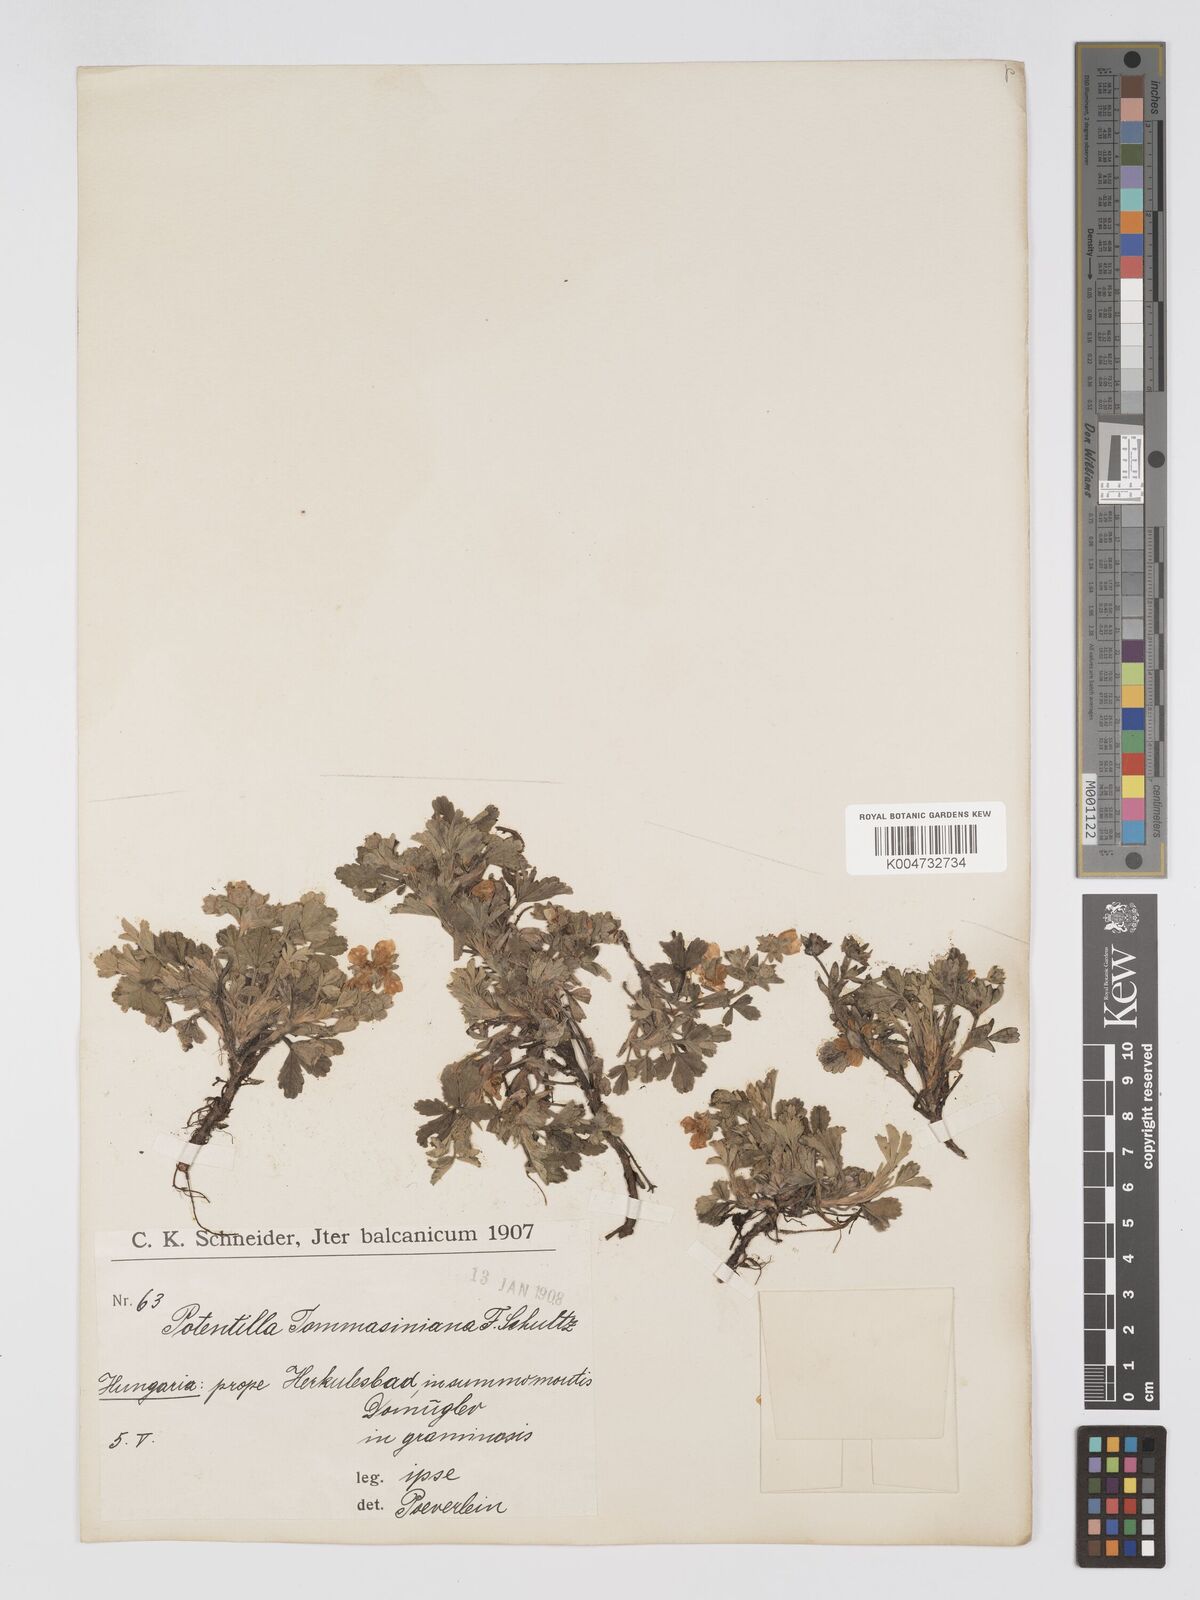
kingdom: Plantae
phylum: Tracheophyta
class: Magnoliopsida
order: Rosales
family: Rosaceae
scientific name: Rosaceae
